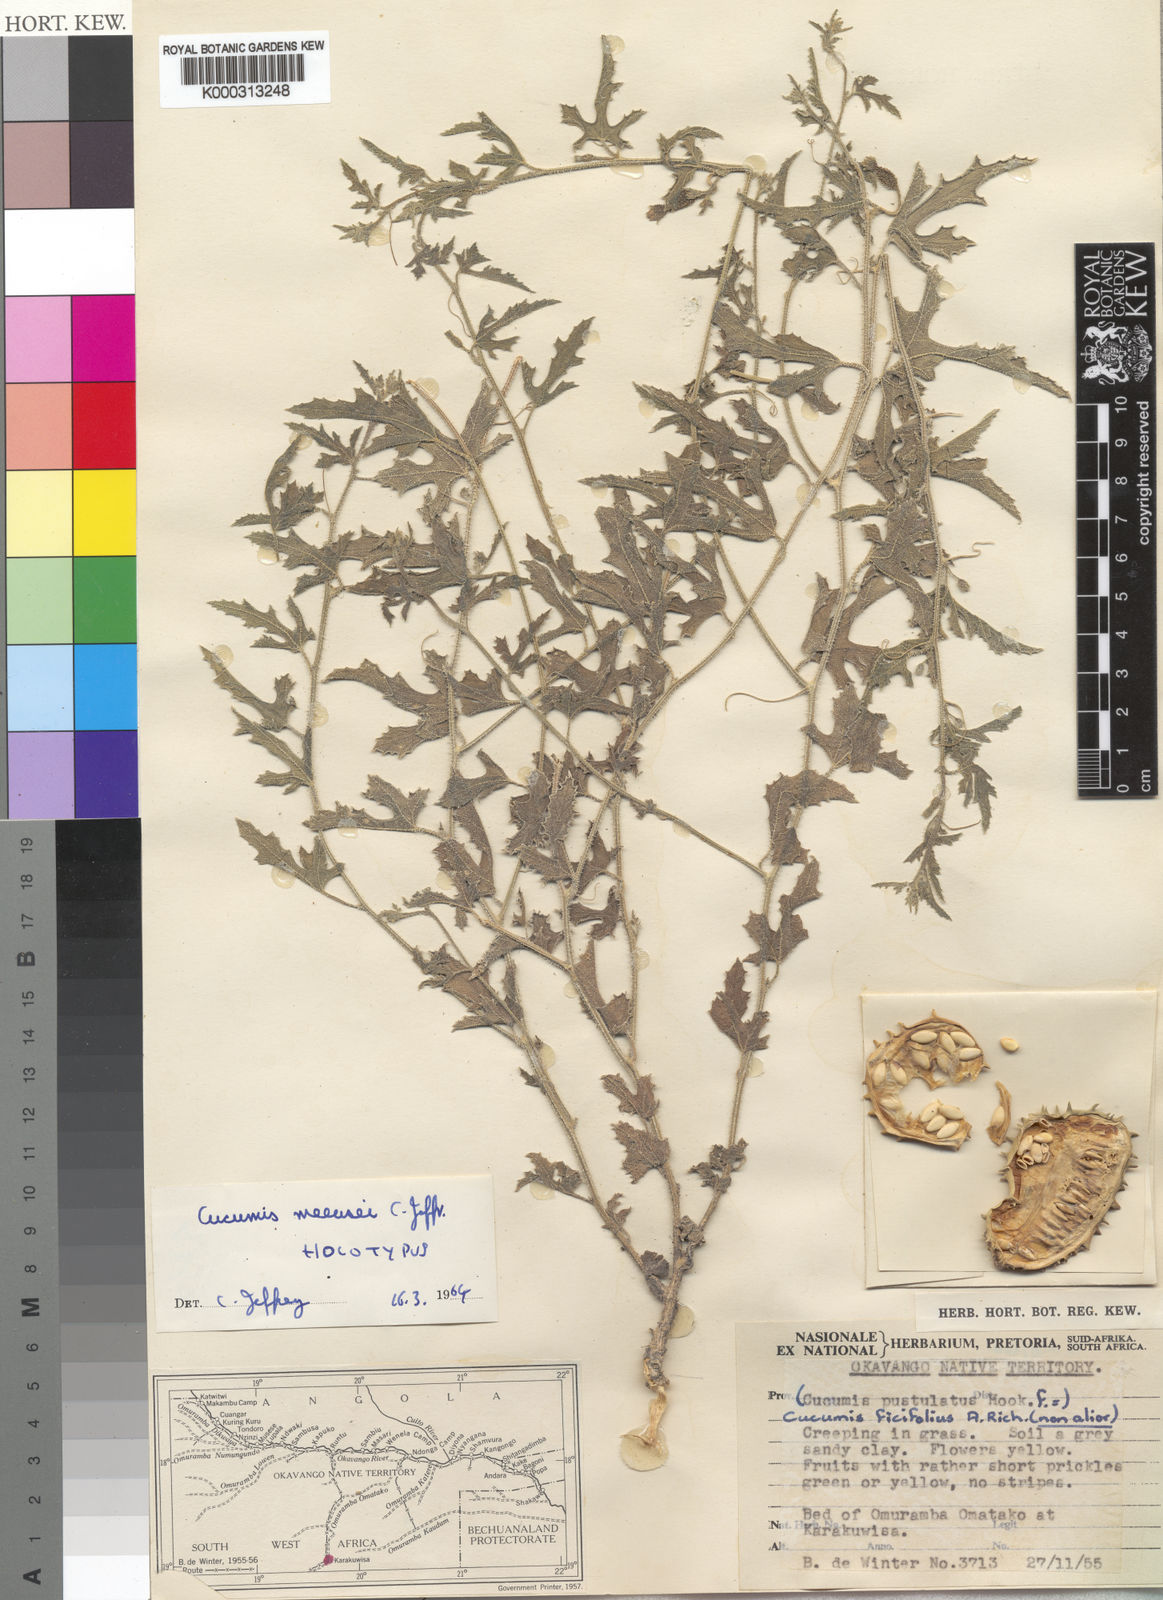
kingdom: Plantae
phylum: Tracheophyta
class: Magnoliopsida
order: Cucurbitales
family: Cucurbitaceae
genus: Cucumis
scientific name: Cucumis meeusei
